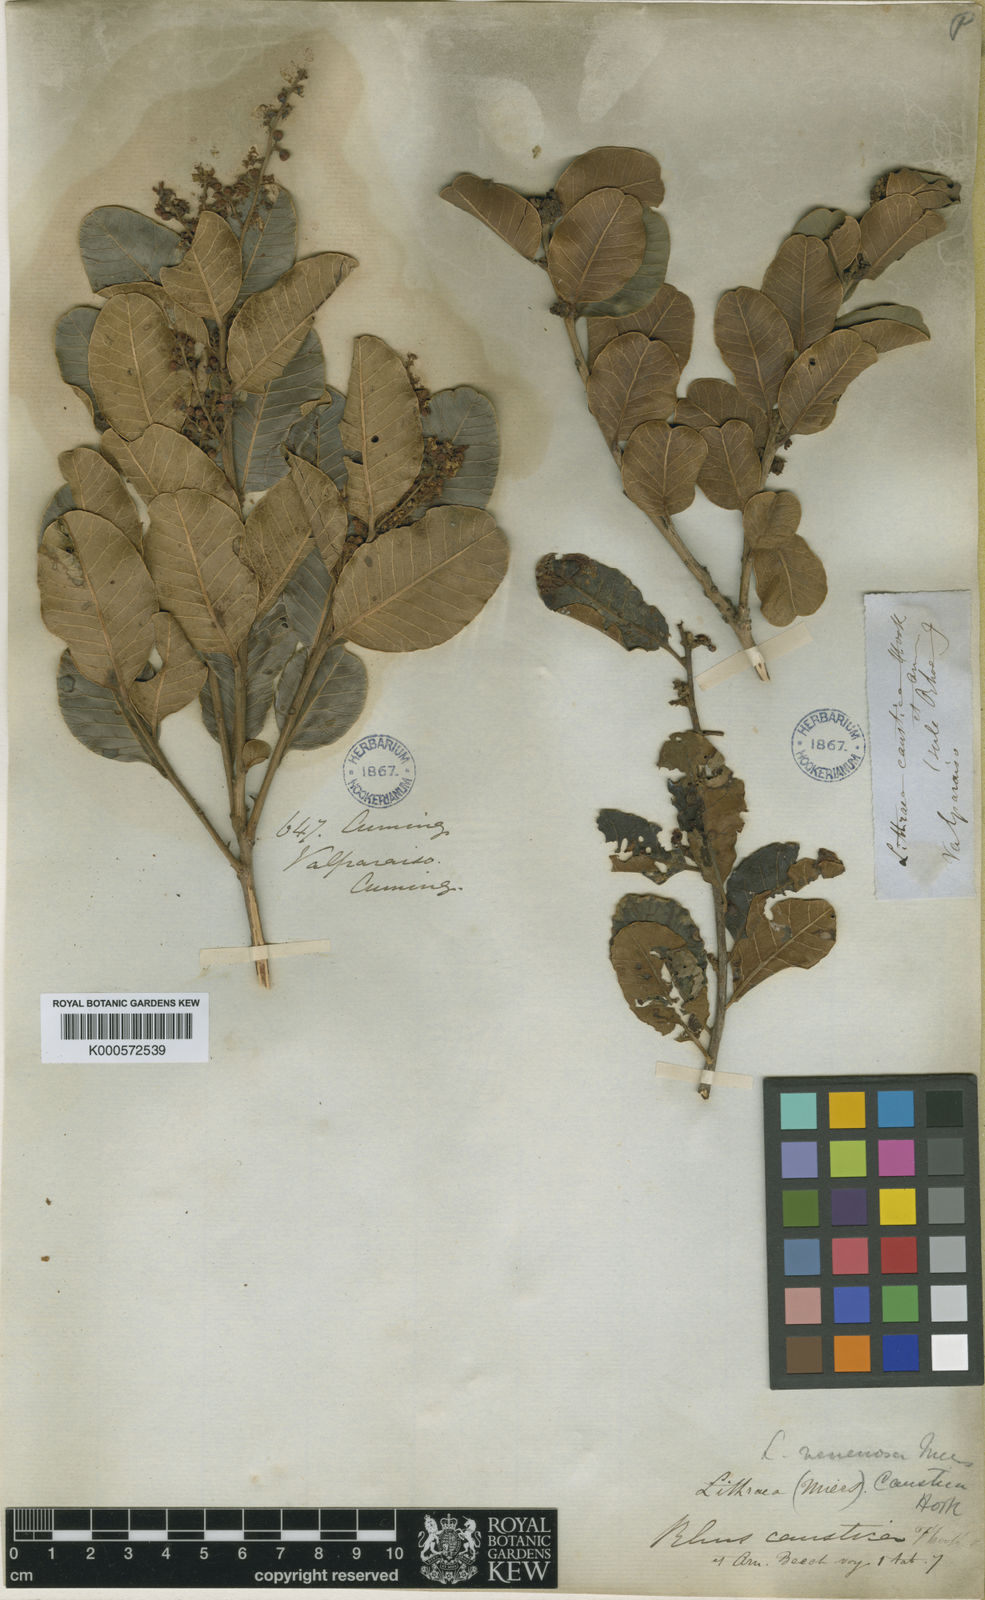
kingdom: Plantae
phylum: Tracheophyta
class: Magnoliopsida
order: Sapindales
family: Anacardiaceae
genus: Lithraea
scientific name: Lithraea caustica
